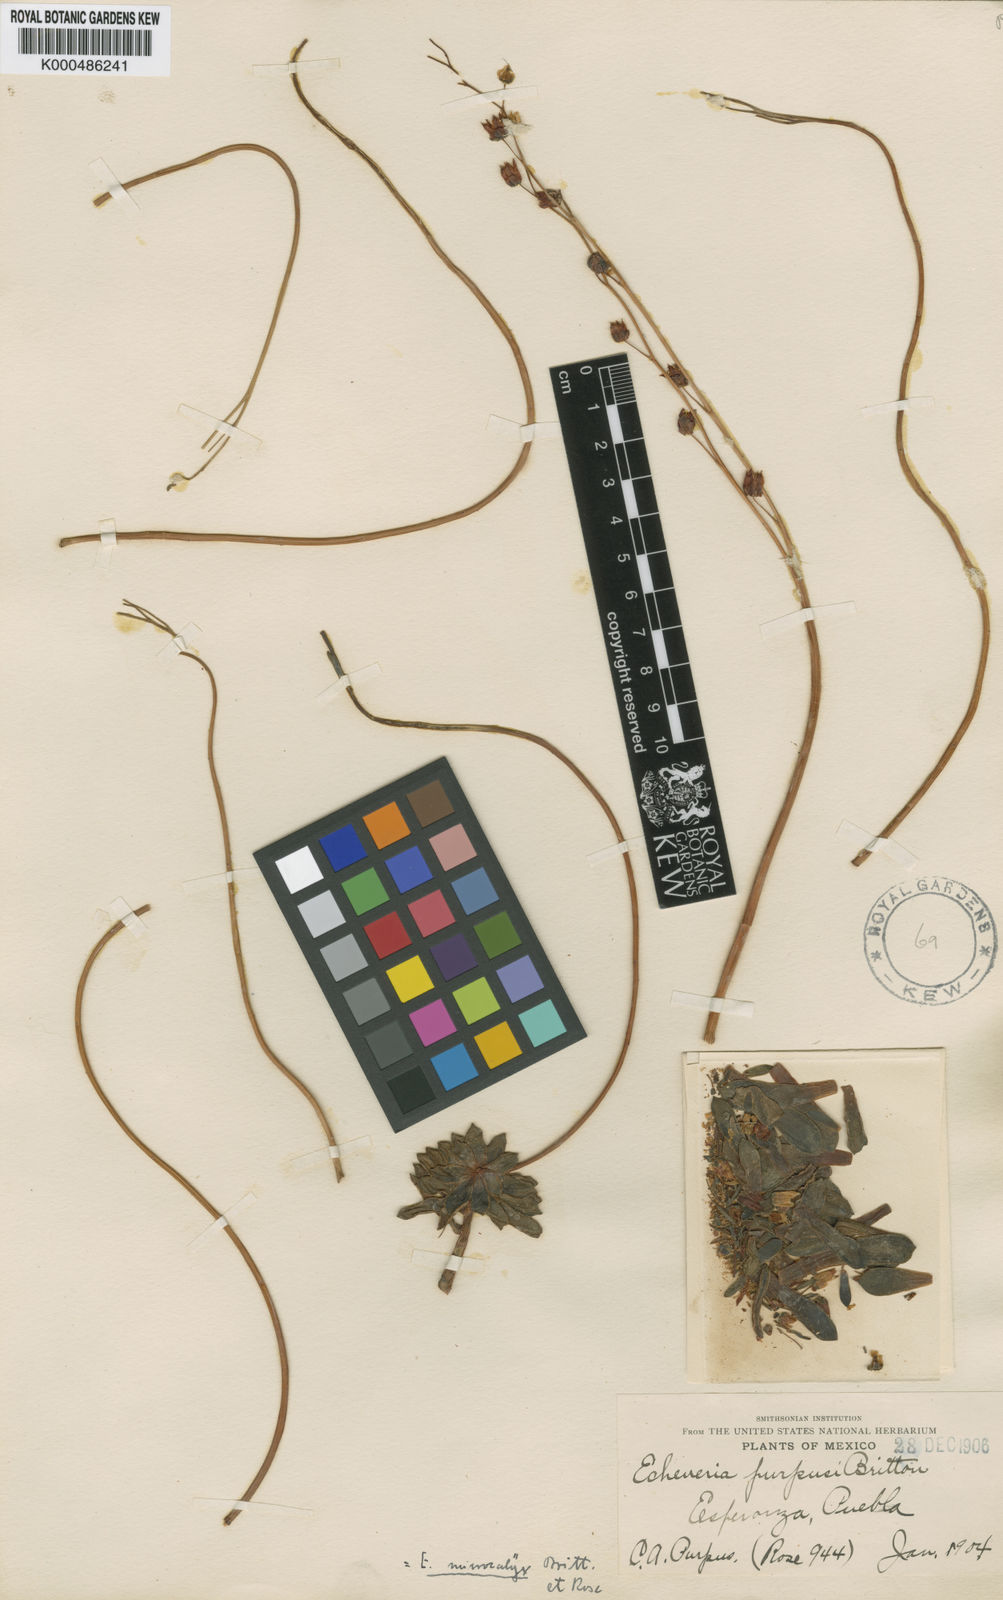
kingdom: Plantae
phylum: Tracheophyta
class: Magnoliopsida
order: Saxifragales
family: Crassulaceae
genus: Echeveria
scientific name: Echeveria amoena
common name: Baby echeveria
